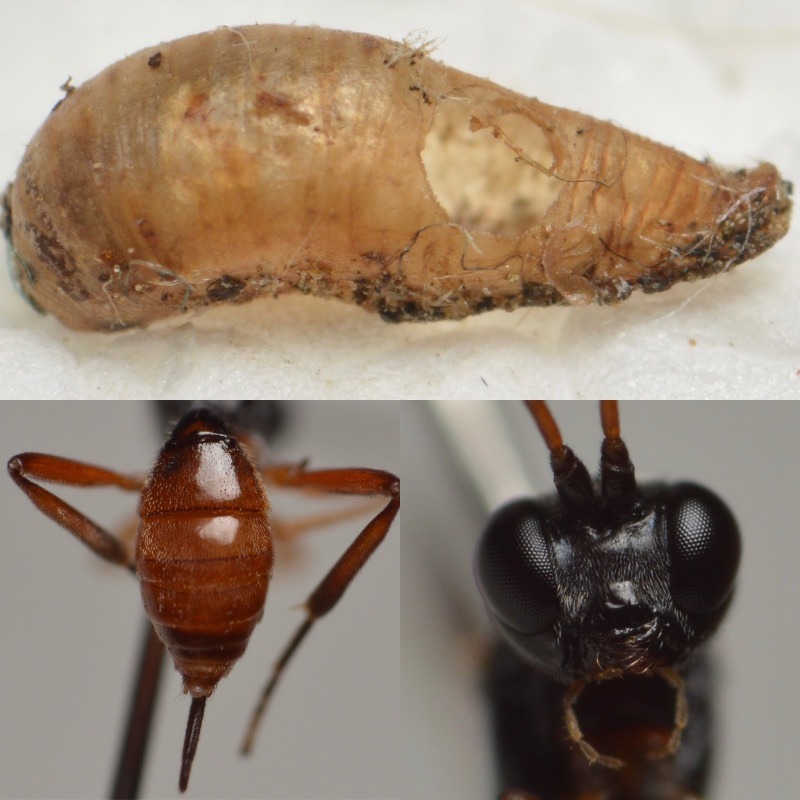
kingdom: Animalia
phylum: Arthropoda
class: Insecta
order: Hymenoptera
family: Ichneumonidae
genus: Bathythrix
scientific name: Bathythrix pellucidator
